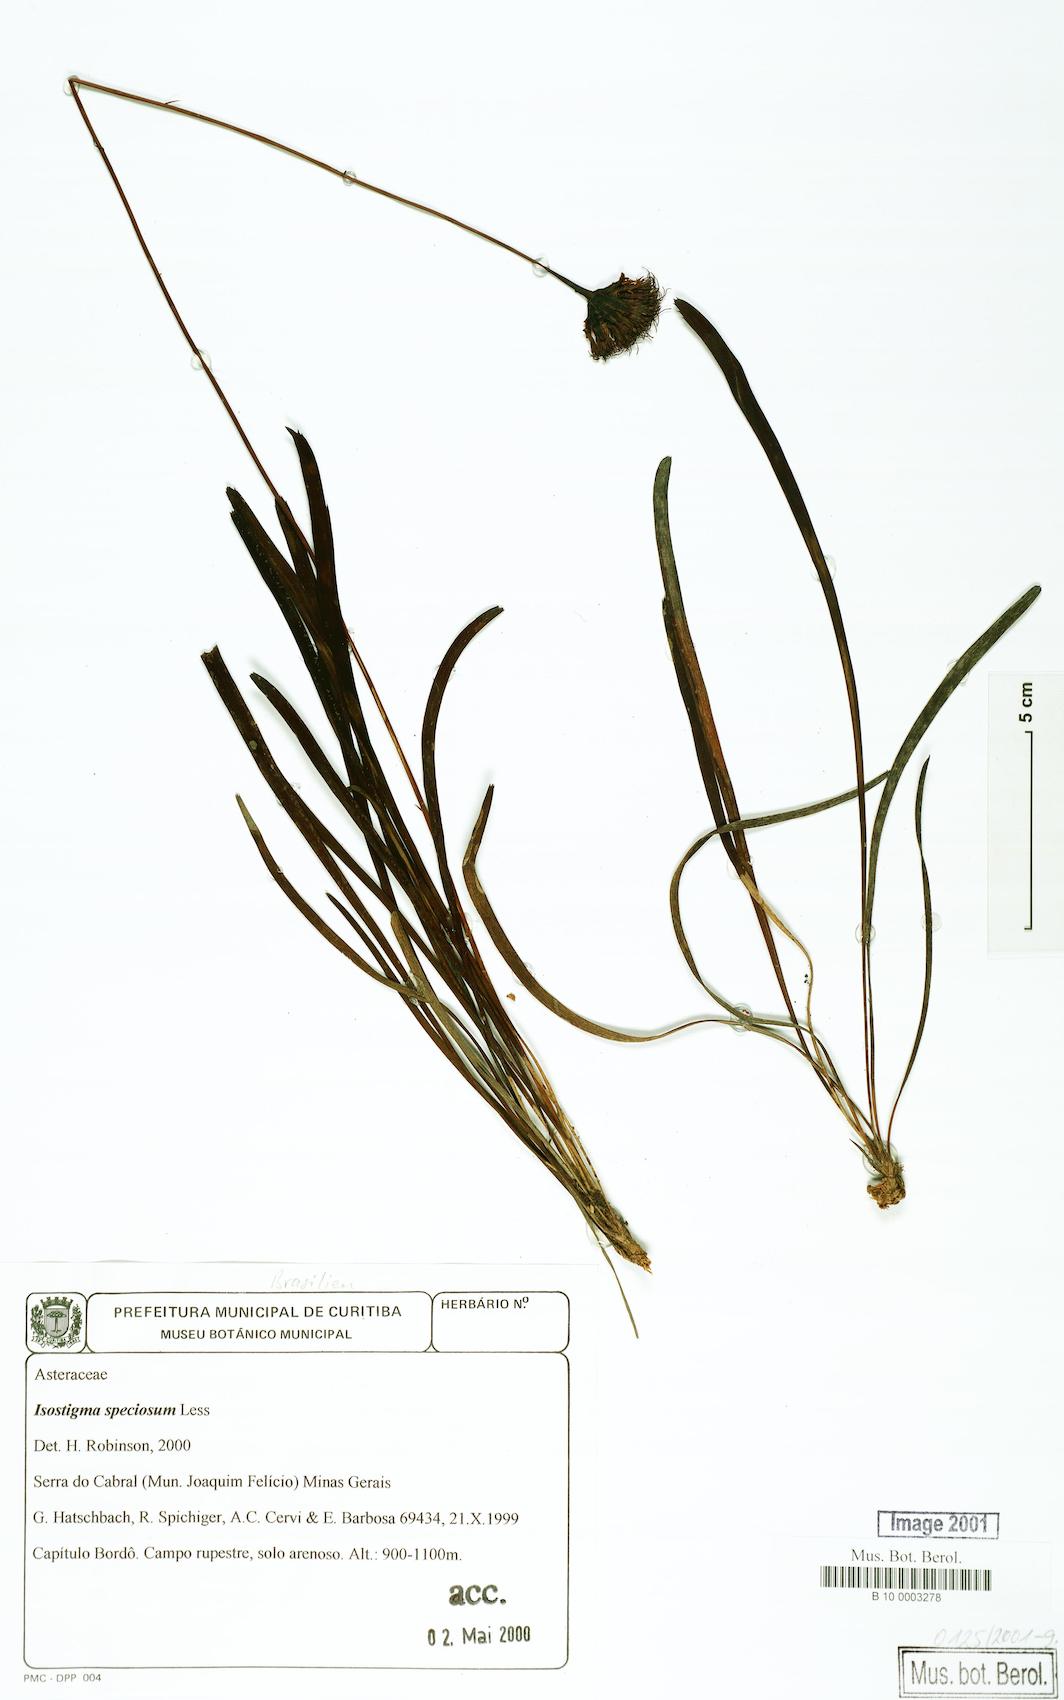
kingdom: Plantae
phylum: Tracheophyta
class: Magnoliopsida
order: Asterales
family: Asteraceae
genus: Isostigma
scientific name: Isostigma peucedanifolium
